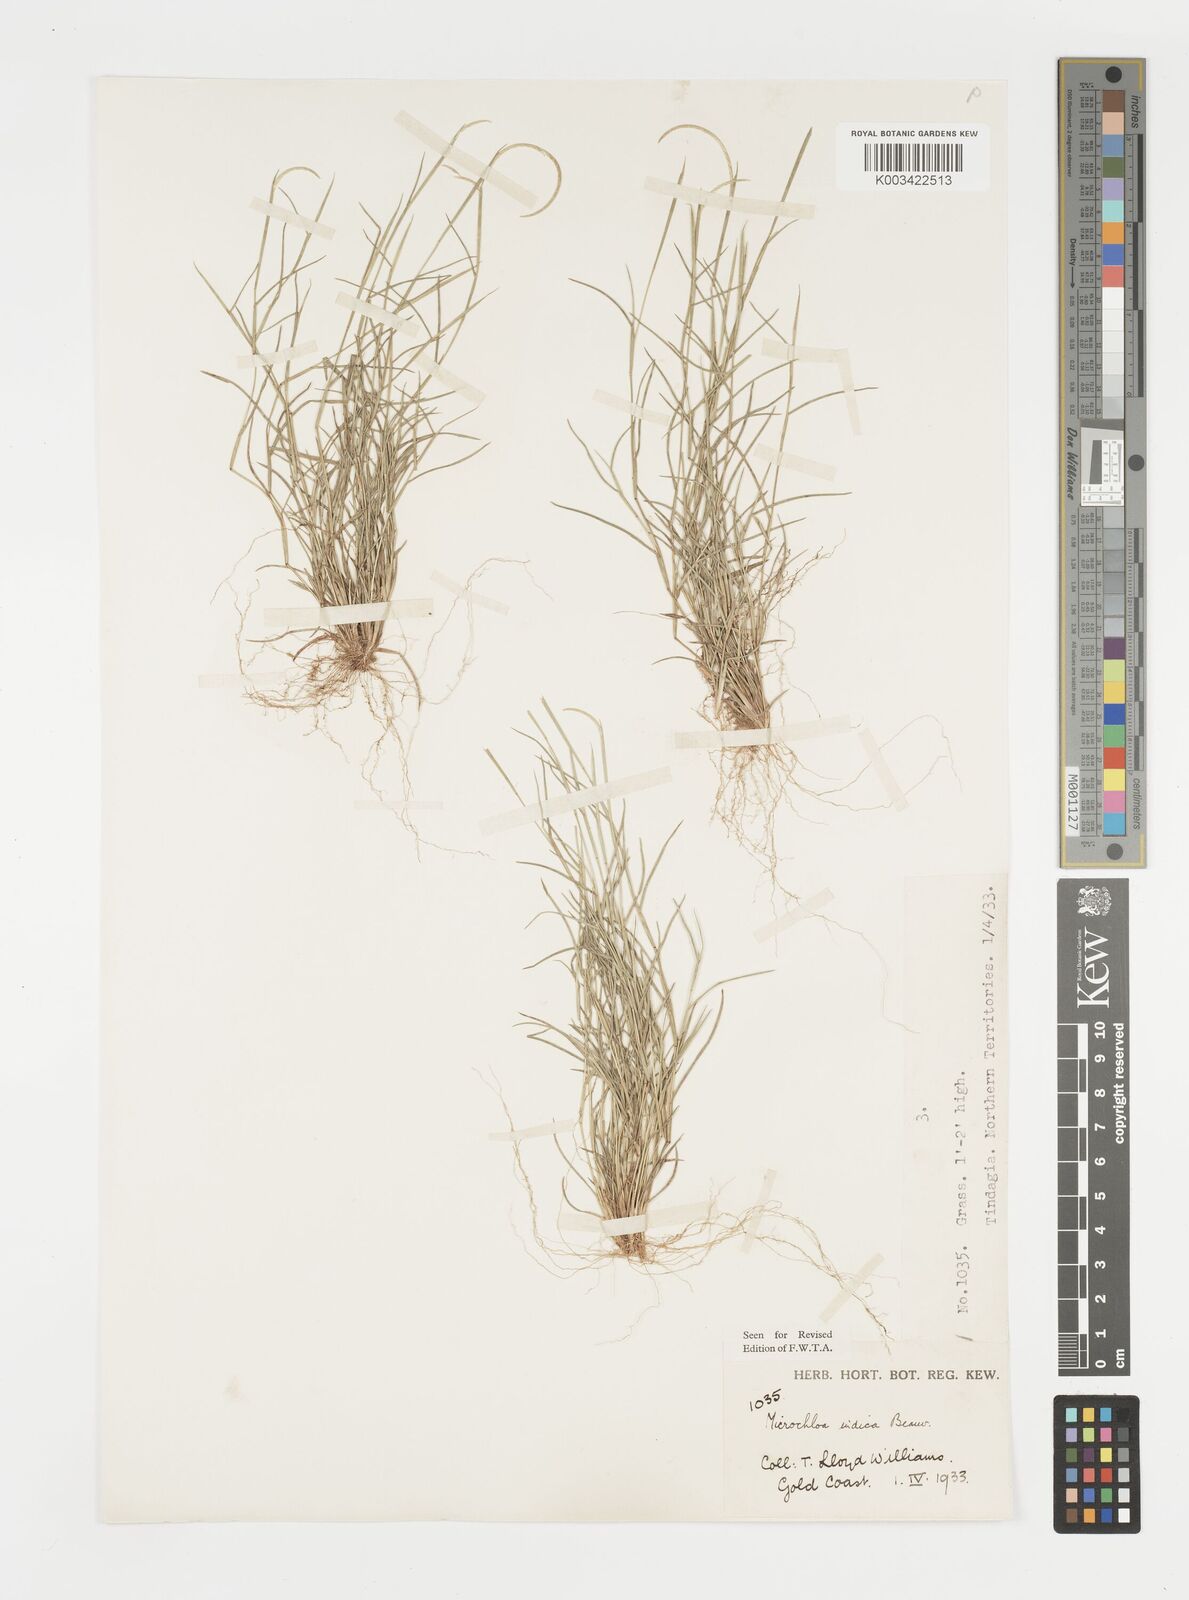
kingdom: Plantae
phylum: Tracheophyta
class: Liliopsida
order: Poales
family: Poaceae
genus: Microchloa
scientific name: Microchloa indica
